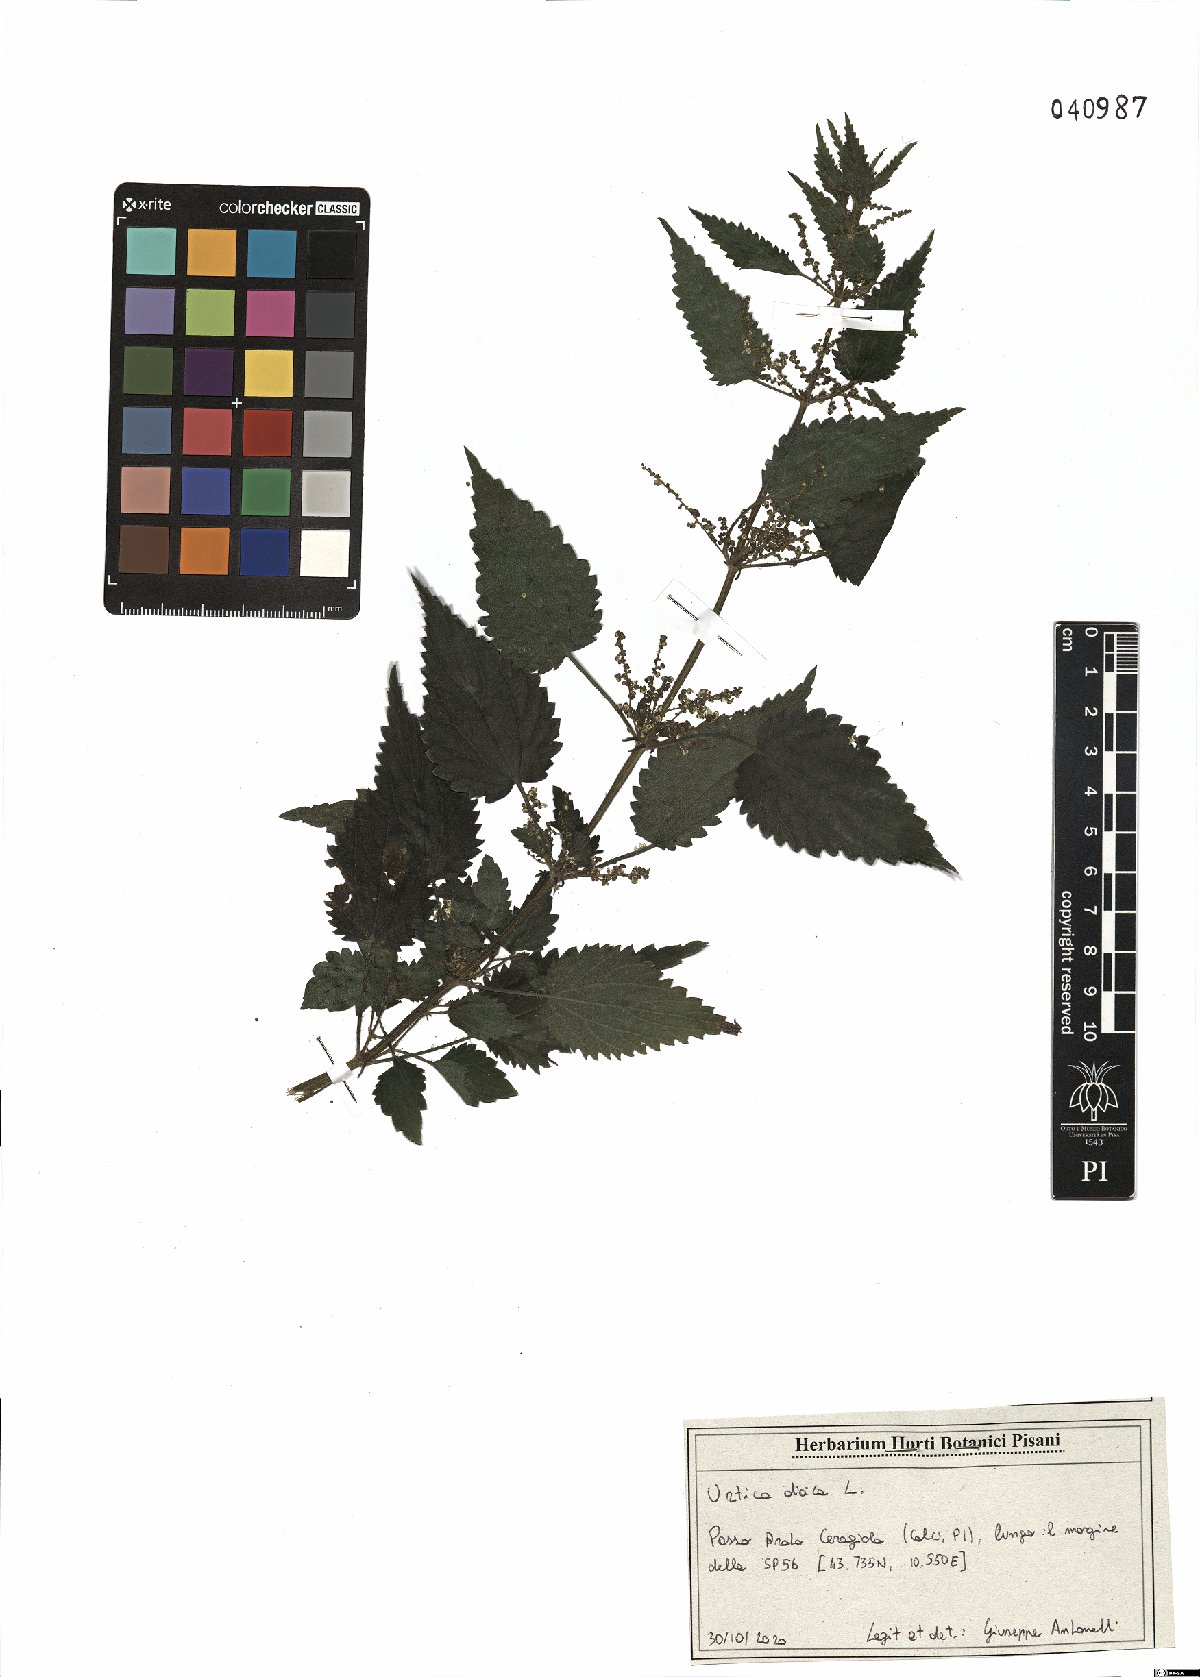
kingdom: Plantae
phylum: Tracheophyta
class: Magnoliopsida
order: Rosales
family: Urticaceae
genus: Urtica
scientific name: Urtica dioica
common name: Common nettle
